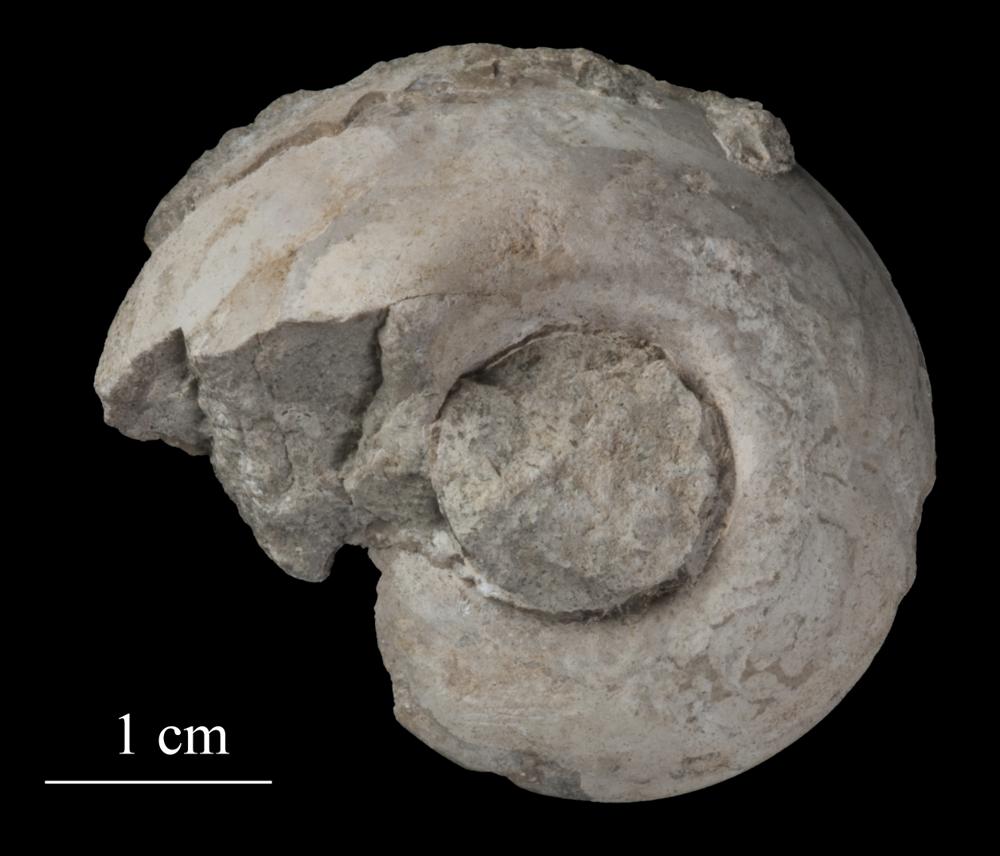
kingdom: Animalia
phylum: Mollusca
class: Gastropoda
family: Lesueurillidae
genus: Pararaphistoma
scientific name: Pararaphistoma Helicites qualteriata
